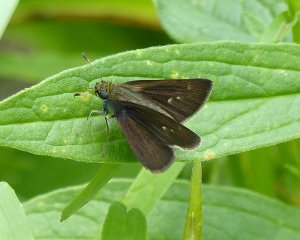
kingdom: Animalia
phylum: Arthropoda
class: Insecta
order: Lepidoptera
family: Hesperiidae
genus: Euphyes
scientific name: Euphyes vestris
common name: Dun Skipper
